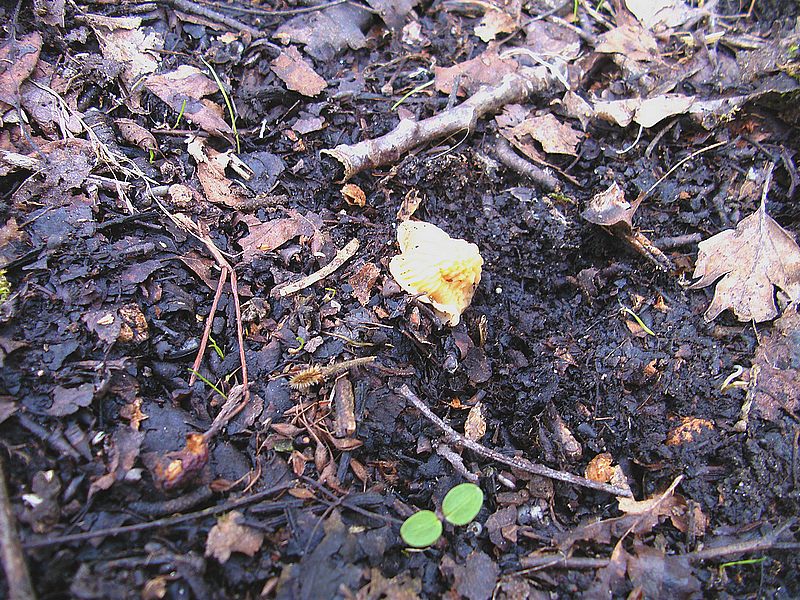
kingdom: Fungi
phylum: Ascomycota
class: Pezizomycetes
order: Pezizales
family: Morchellaceae
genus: Verpa
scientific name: Verpa bohemica
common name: rynket klokkemorkel
